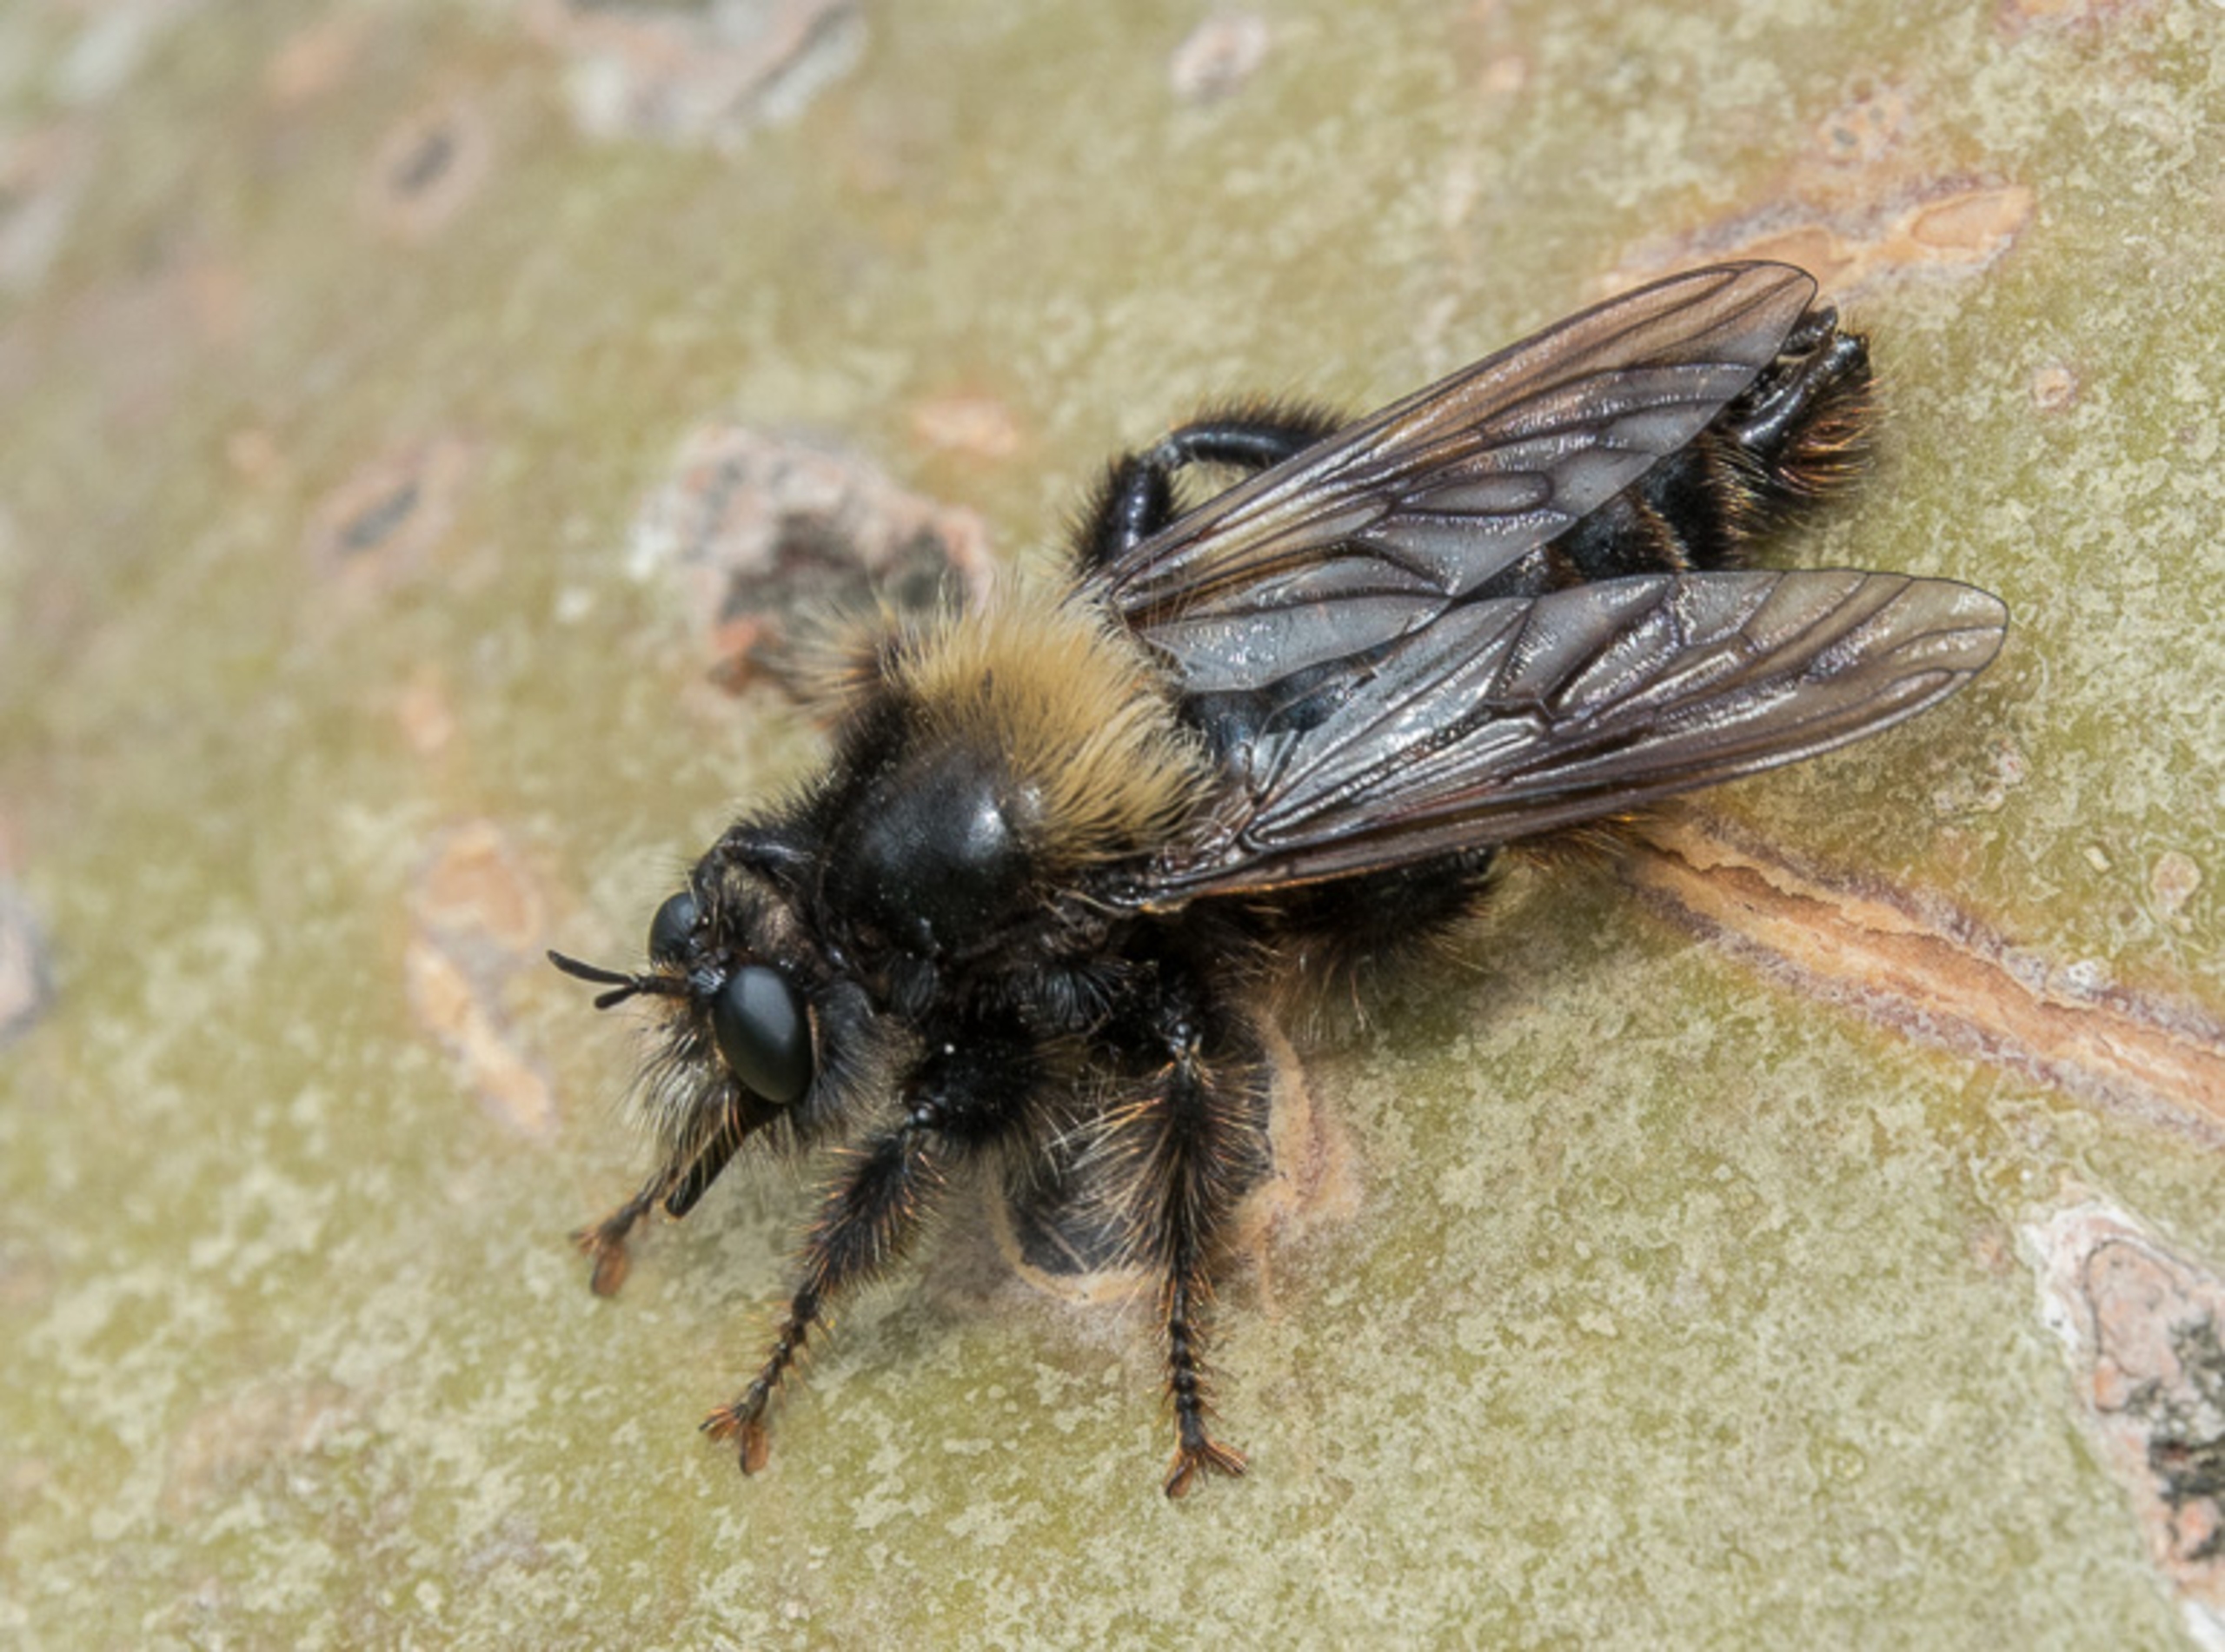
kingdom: Animalia
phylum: Arthropoda
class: Insecta
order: Diptera
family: Asilidae
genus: Laphria
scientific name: Laphria ephippium
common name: Sort vedrovflue
